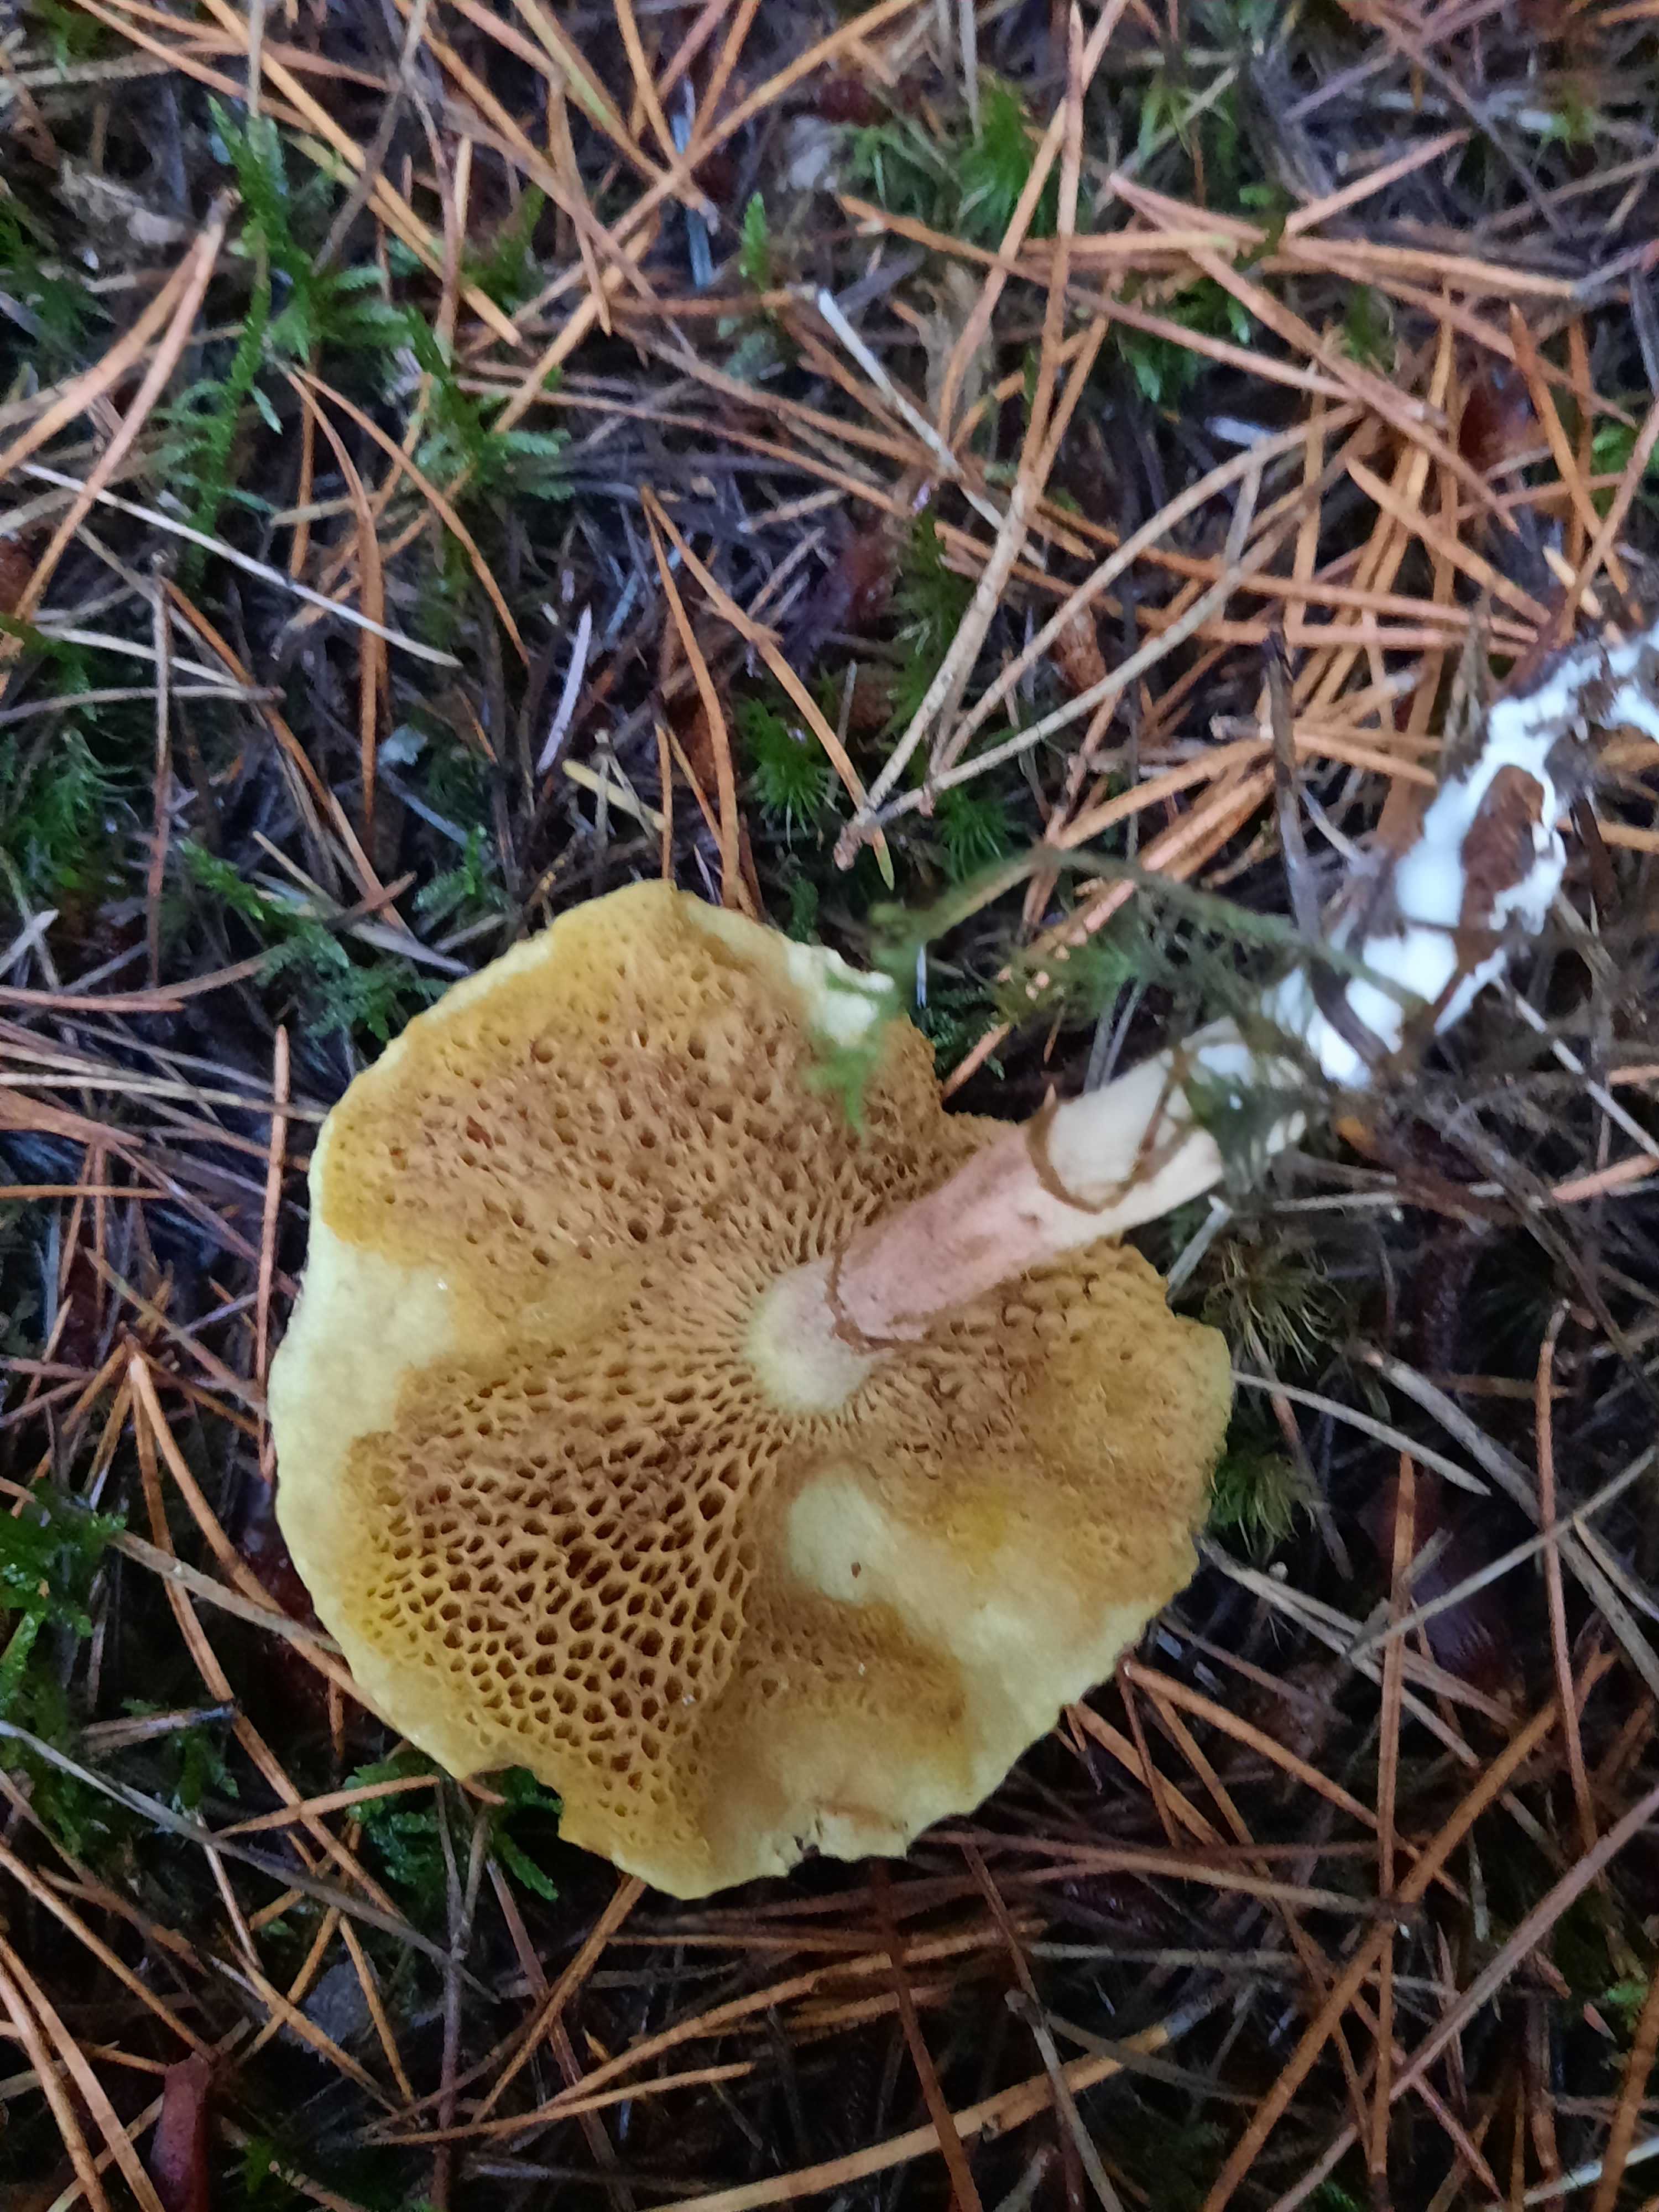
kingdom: Fungi
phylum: Basidiomycota
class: Agaricomycetes
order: Boletales
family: Suillaceae
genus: Suillus
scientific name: Suillus flavidus
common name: mose-slimrørhat
